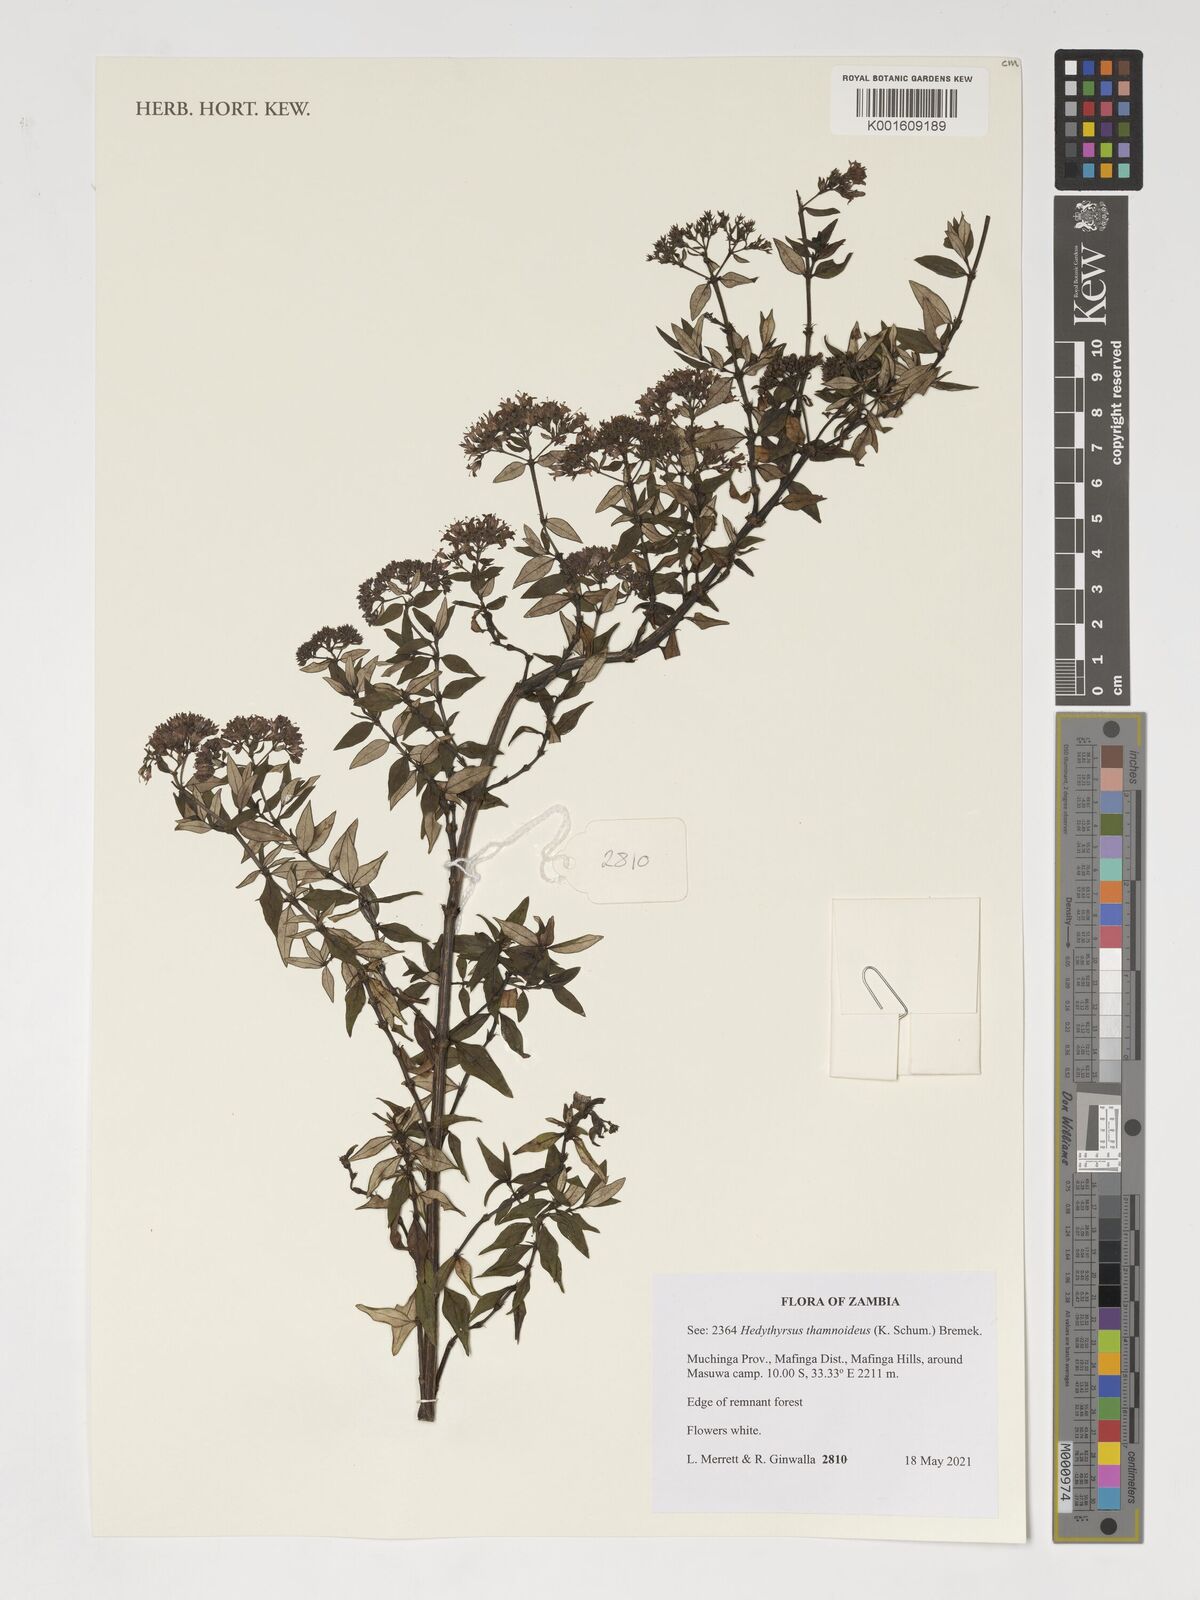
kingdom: Plantae
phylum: Tracheophyta
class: Magnoliopsida
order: Gentianales
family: Rubiaceae
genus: Hedythyrsus
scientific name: Hedythyrsus thamnoideus
